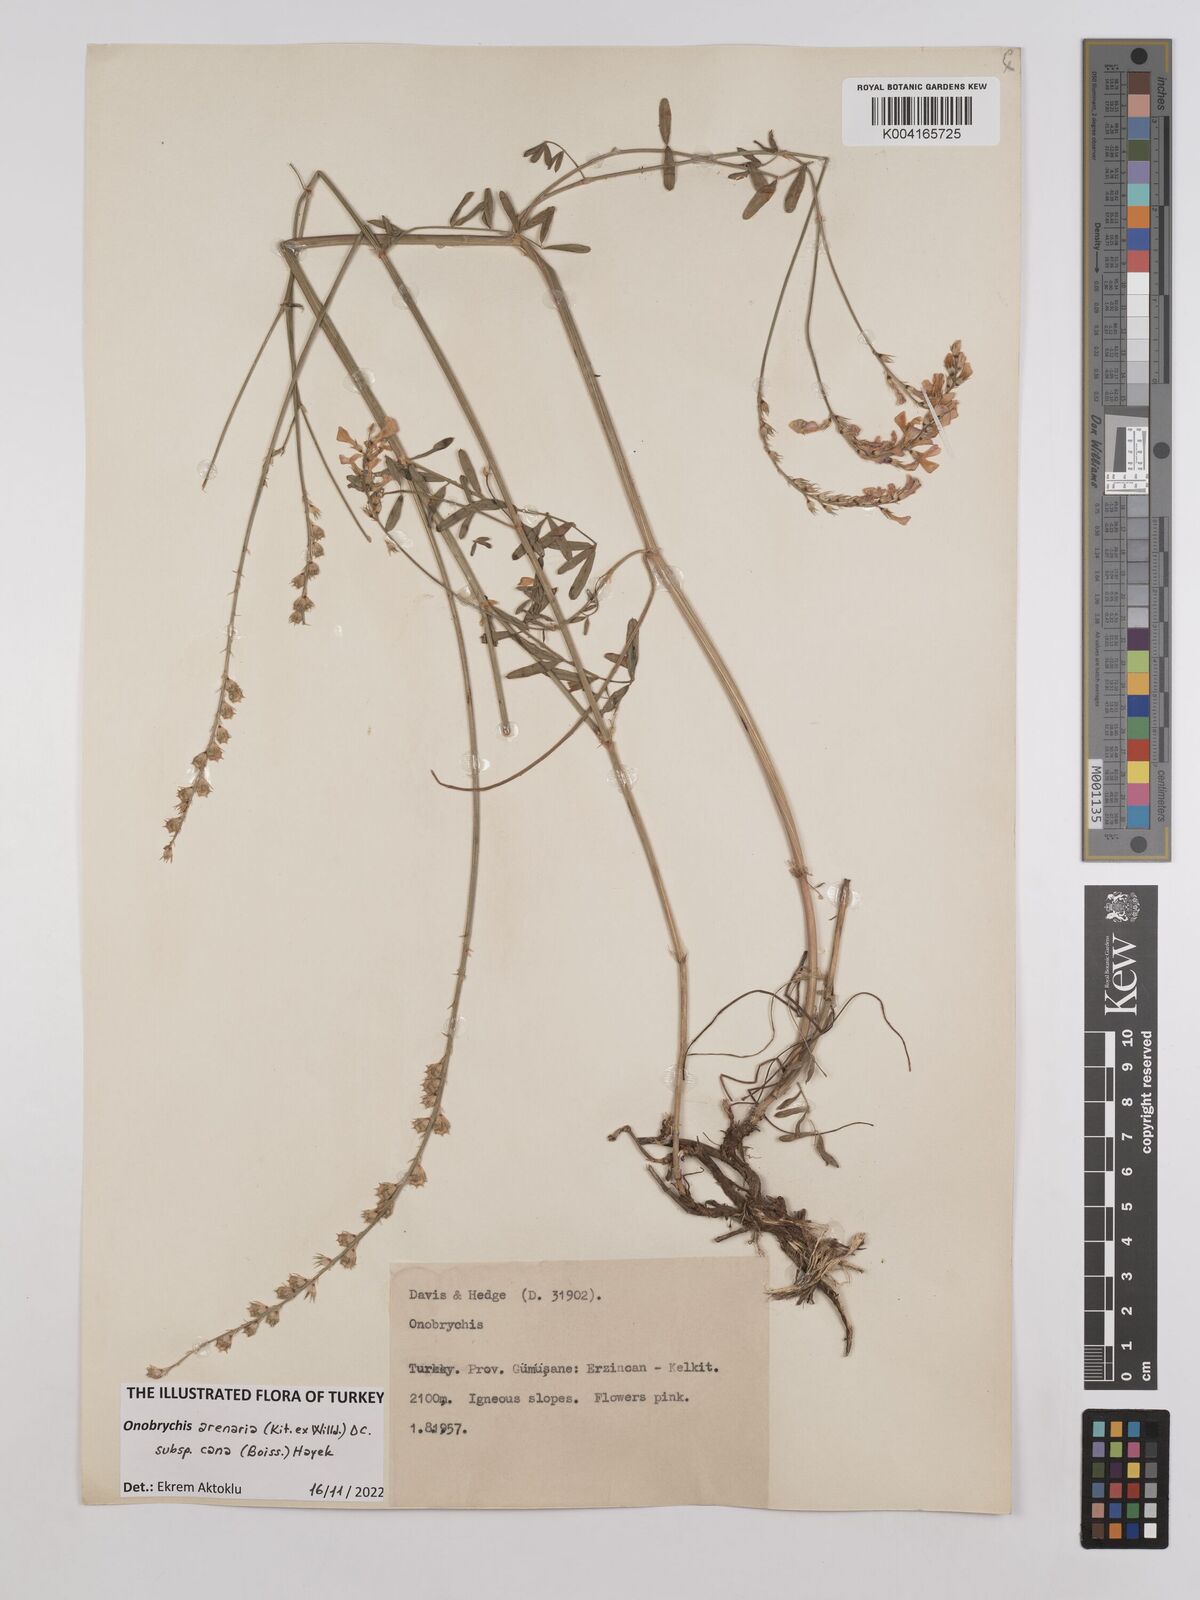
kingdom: Plantae
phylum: Tracheophyta
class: Magnoliopsida
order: Fabales
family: Fabaceae
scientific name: Fabaceae
